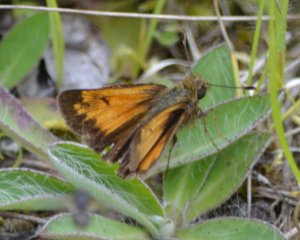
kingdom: Animalia
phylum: Arthropoda
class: Insecta
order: Lepidoptera
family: Hesperiidae
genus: Lon
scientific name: Lon hobomok
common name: Hobomok Skipper
